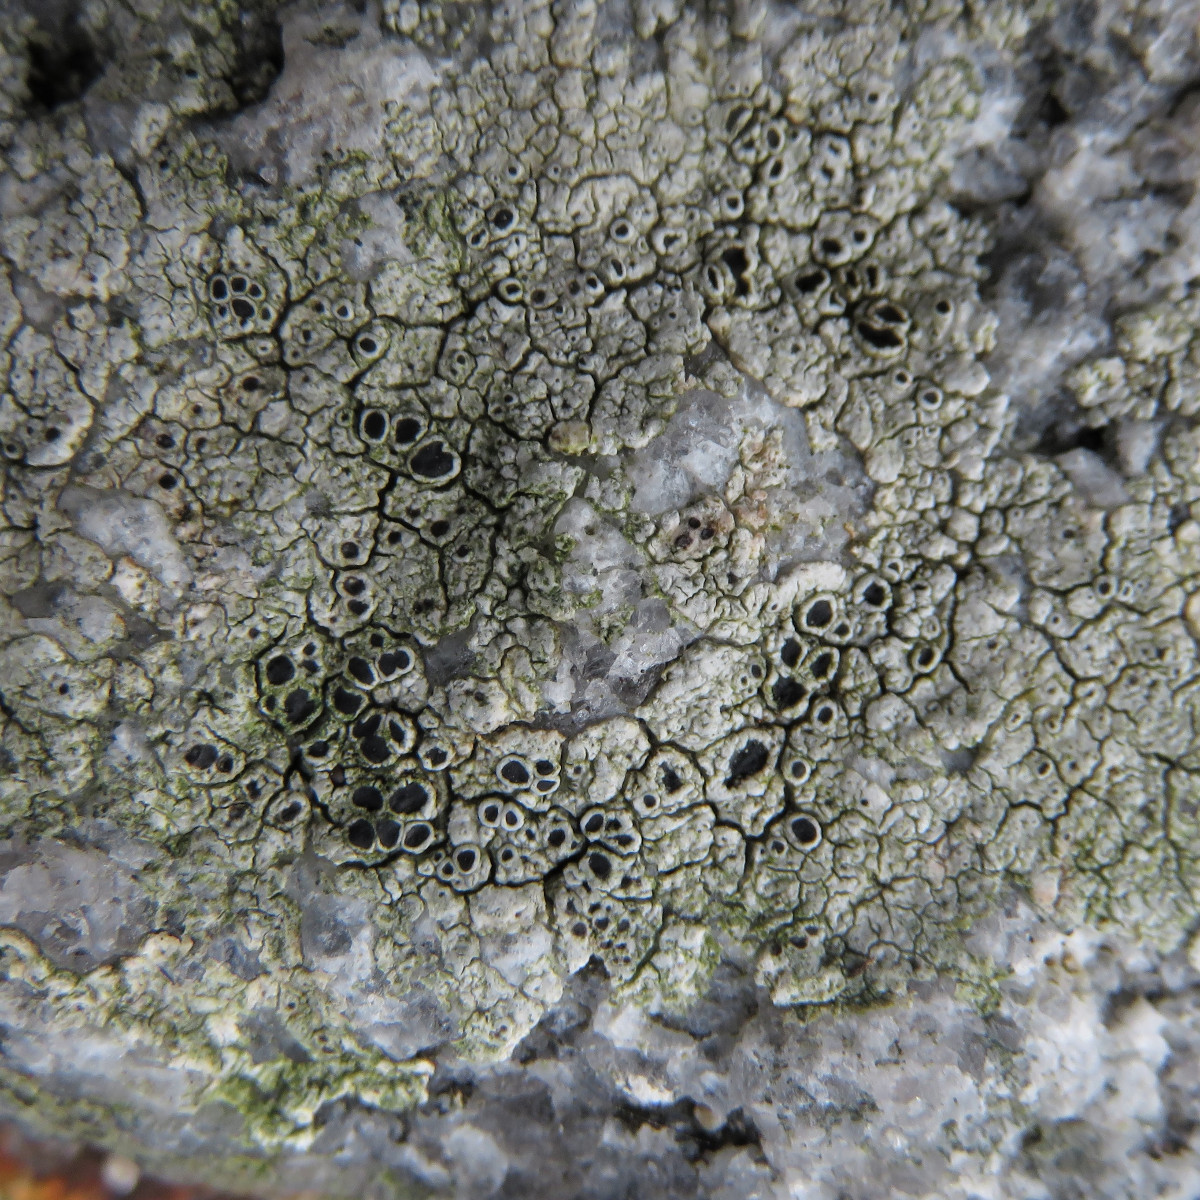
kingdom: Fungi
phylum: Ascomycota
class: Lecanoromycetes
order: Lecanorales
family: Tephromelataceae
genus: Tephromela
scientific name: Tephromela atra
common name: sortfrugtet kantskivelav
